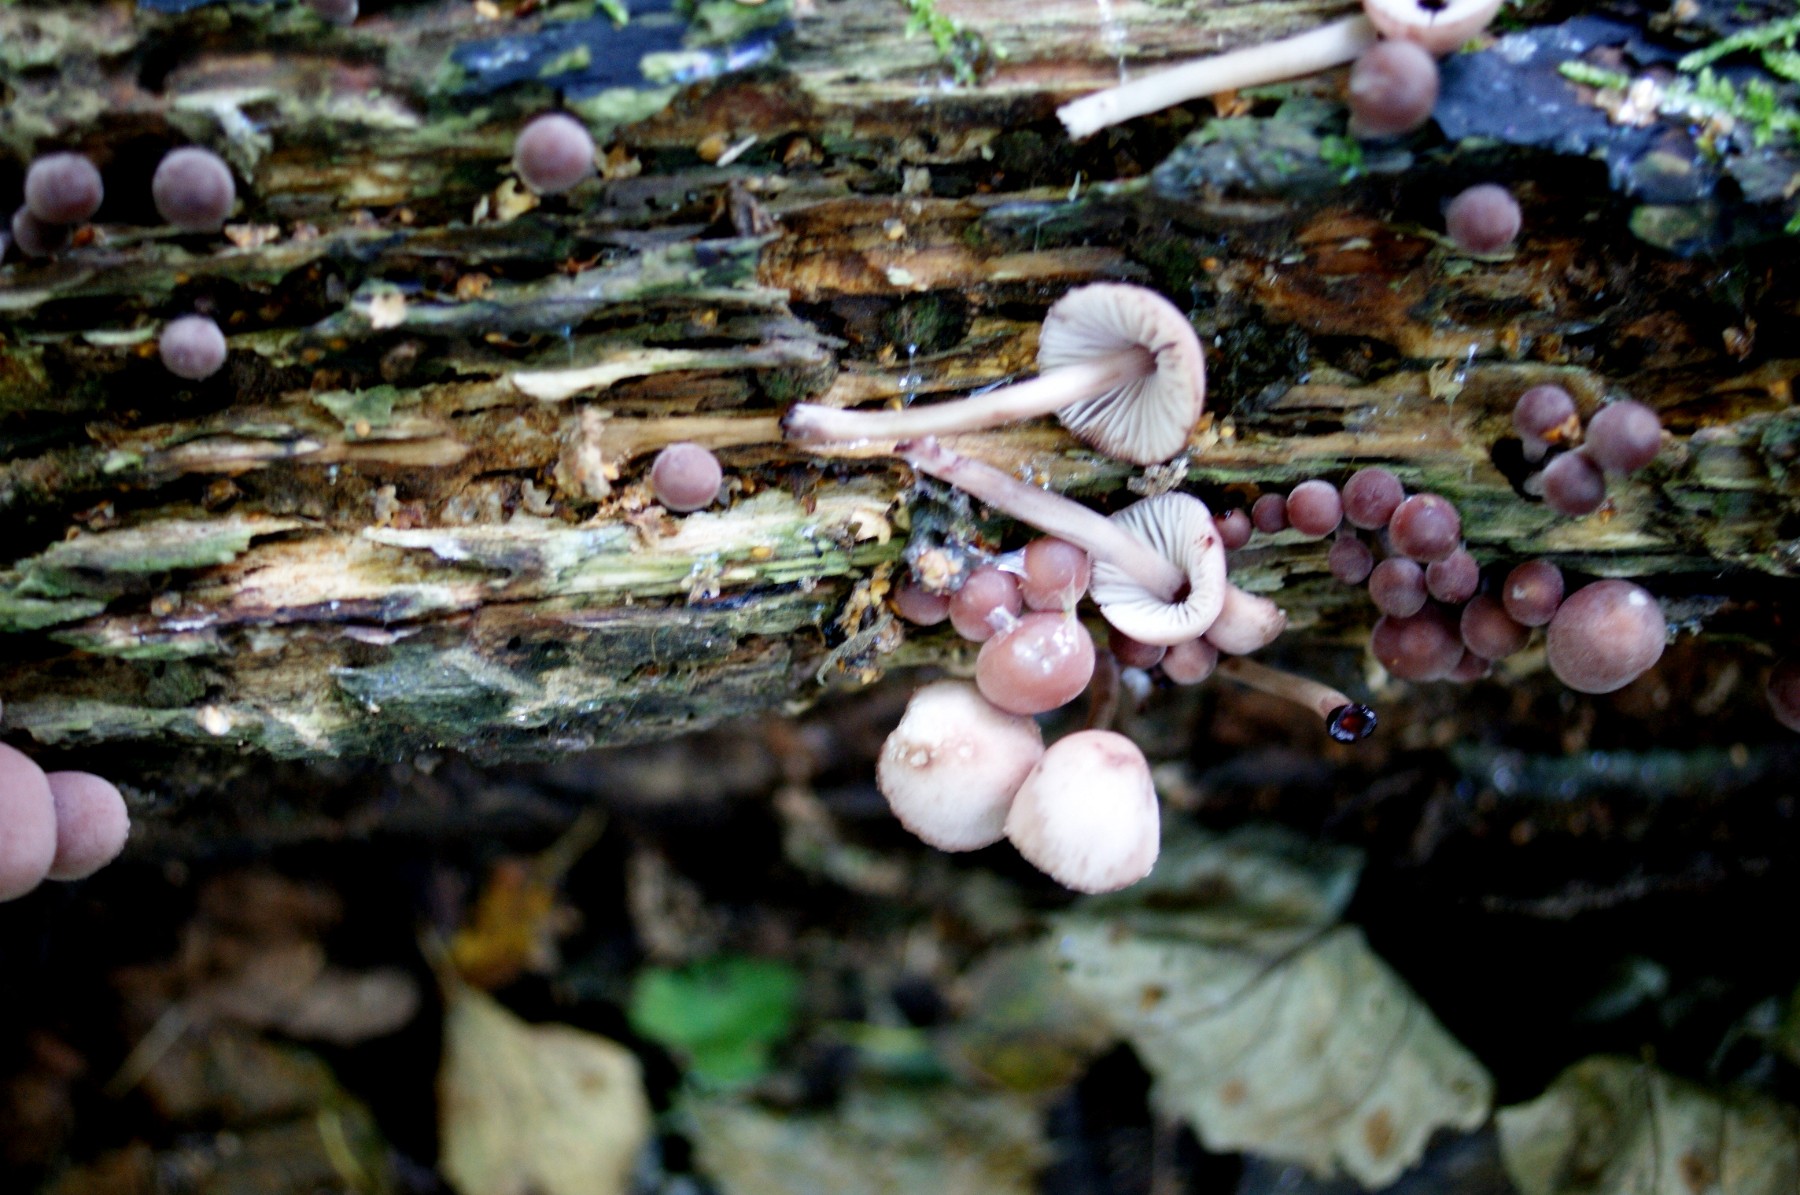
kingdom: Fungi
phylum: Basidiomycota
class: Agaricomycetes
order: Agaricales
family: Mycenaceae
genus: Mycena
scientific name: Mycena haematopus
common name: blødende huesvamp
